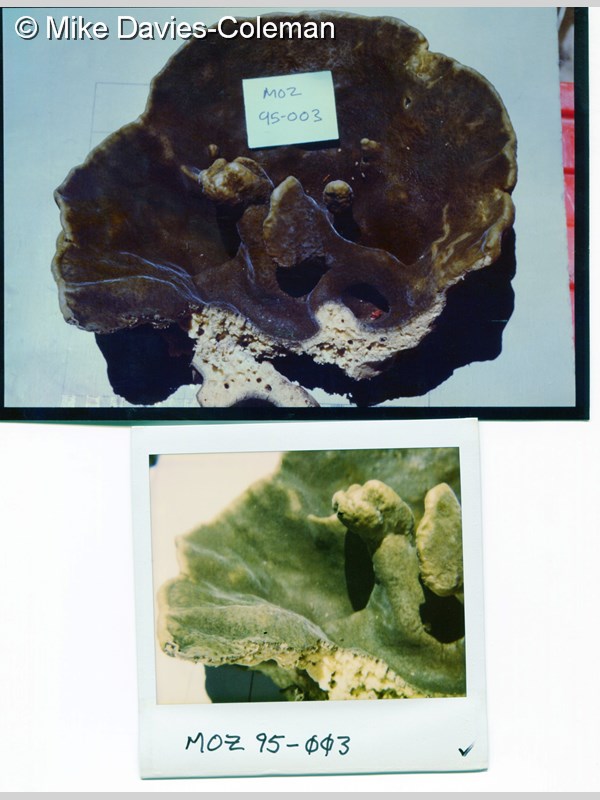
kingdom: Animalia
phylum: Porifera
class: Demospongiae
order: Clionaida
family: Clionaidae
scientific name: Clionaidae
